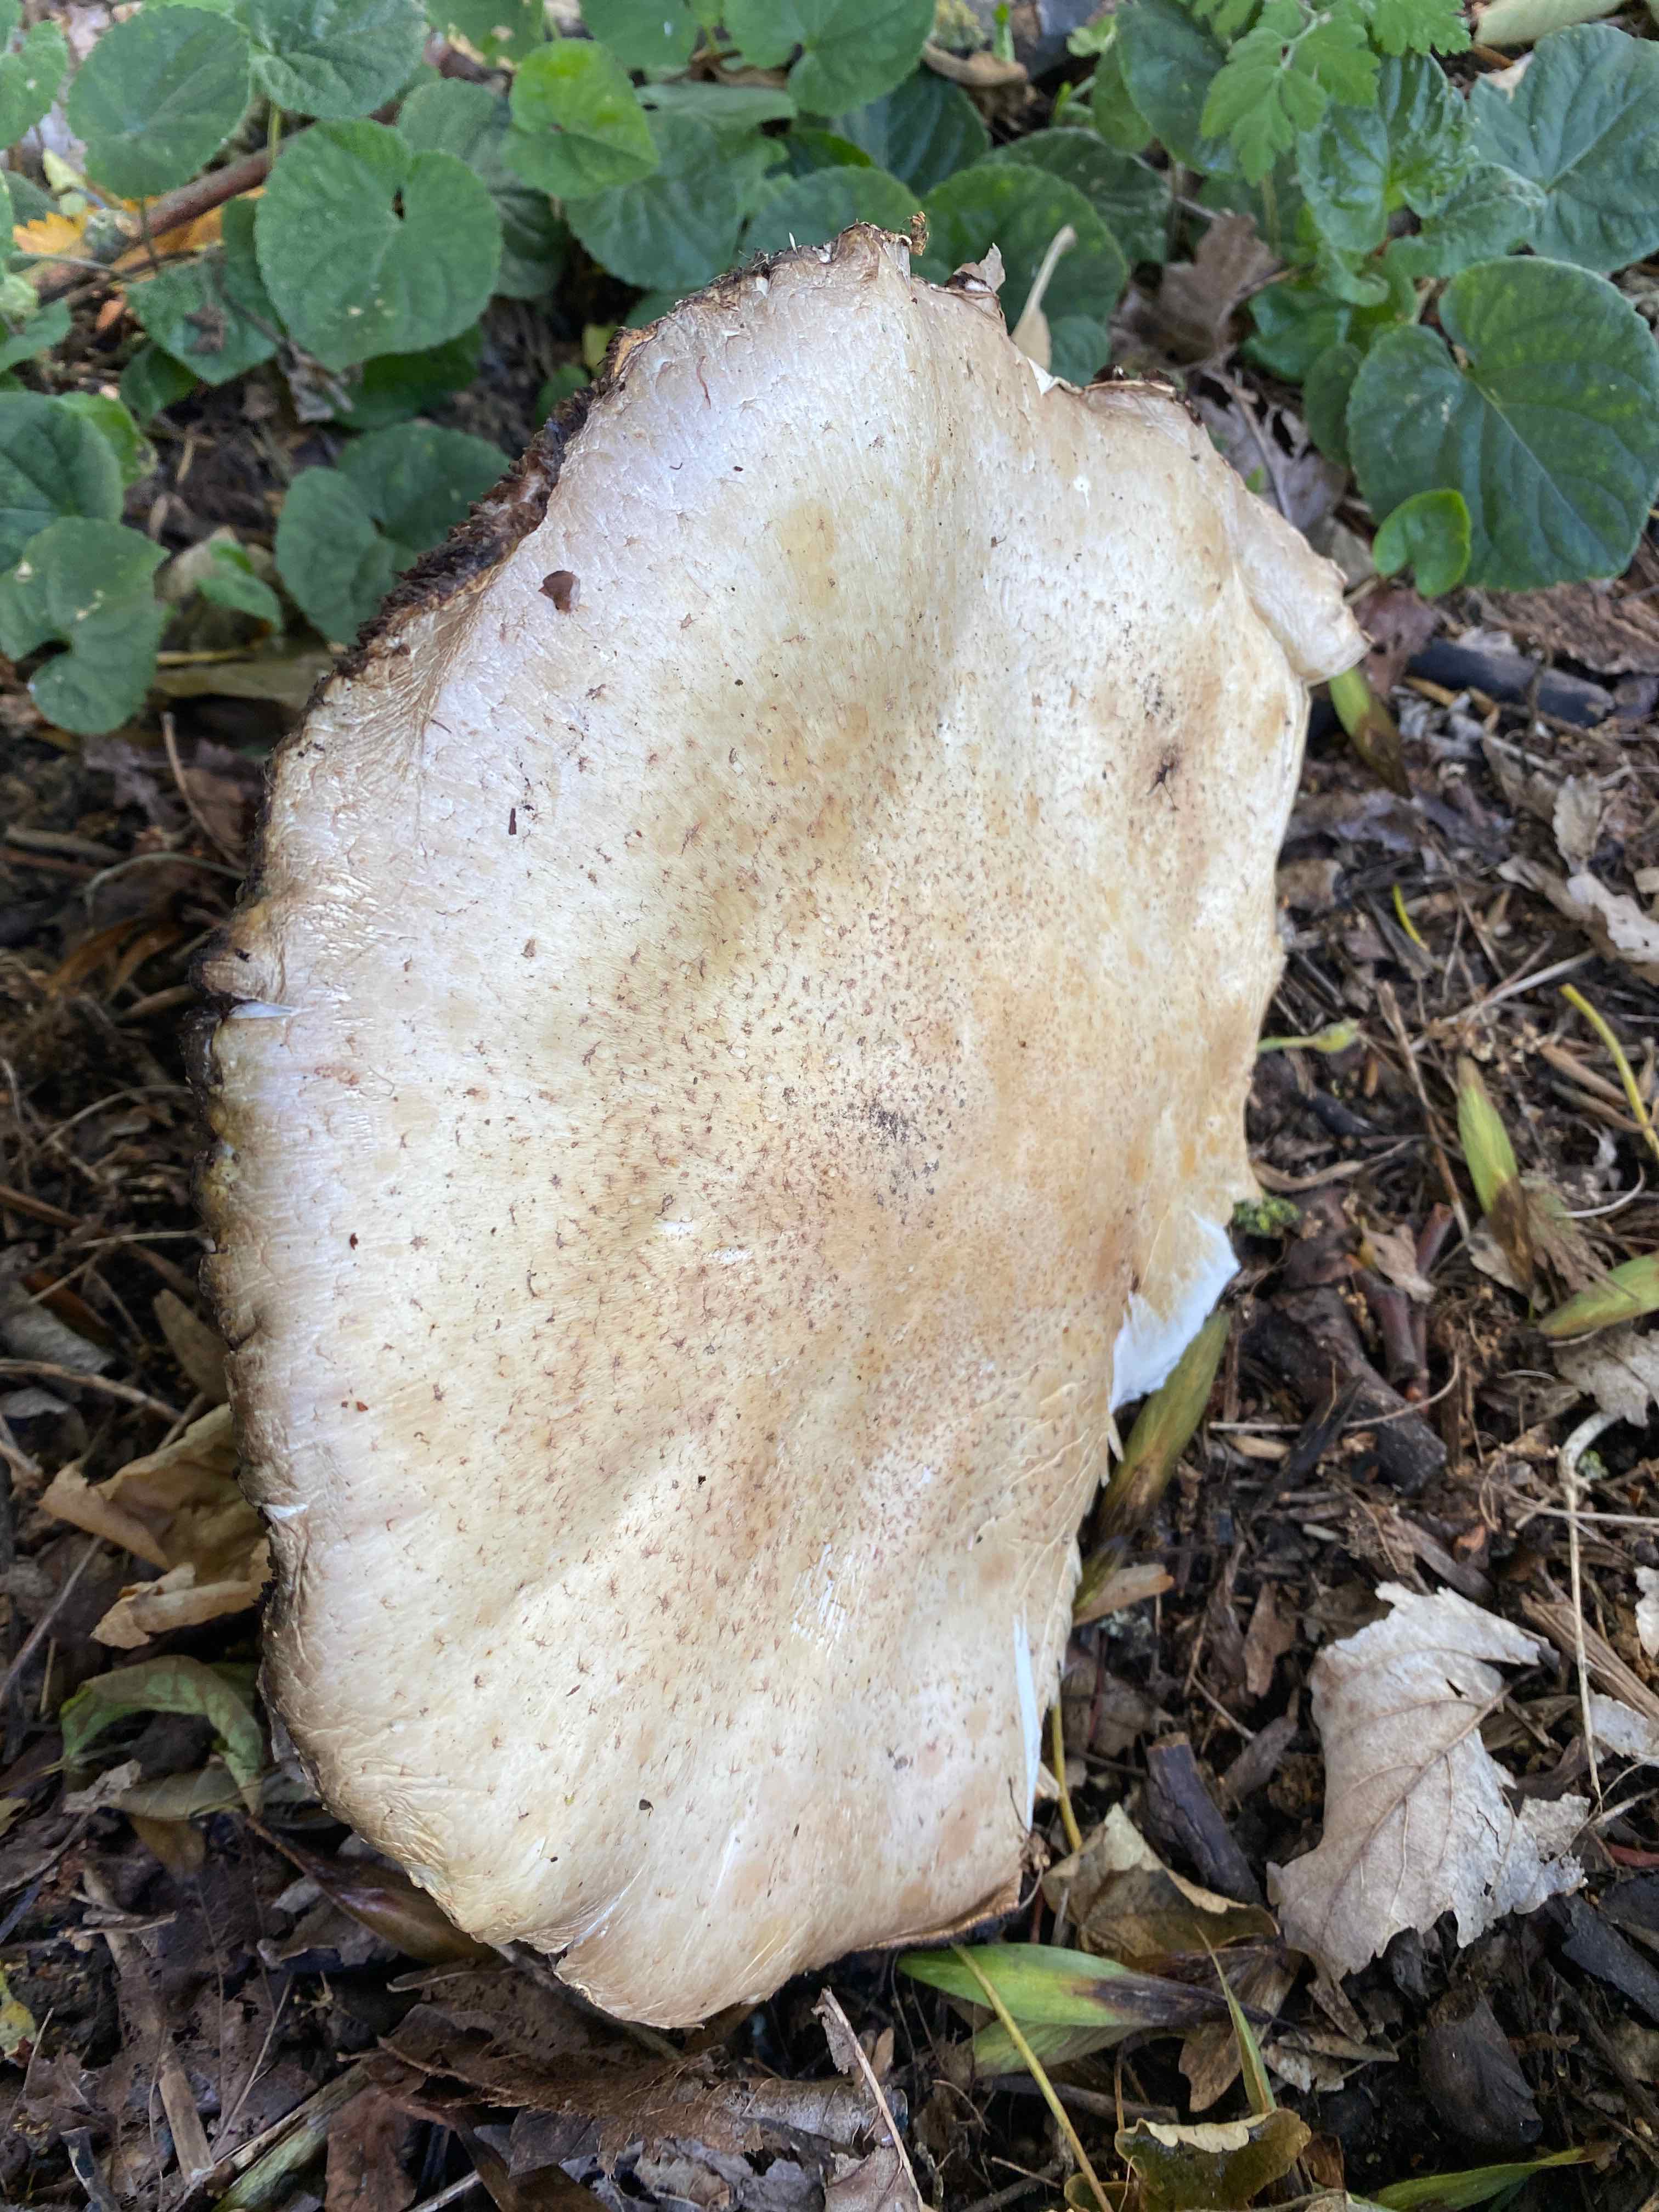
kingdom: Fungi
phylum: Basidiomycota
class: Agaricomycetes
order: Agaricales
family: Agaricaceae
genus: Agaricus
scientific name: Agaricus augustus
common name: prægtig champignon
